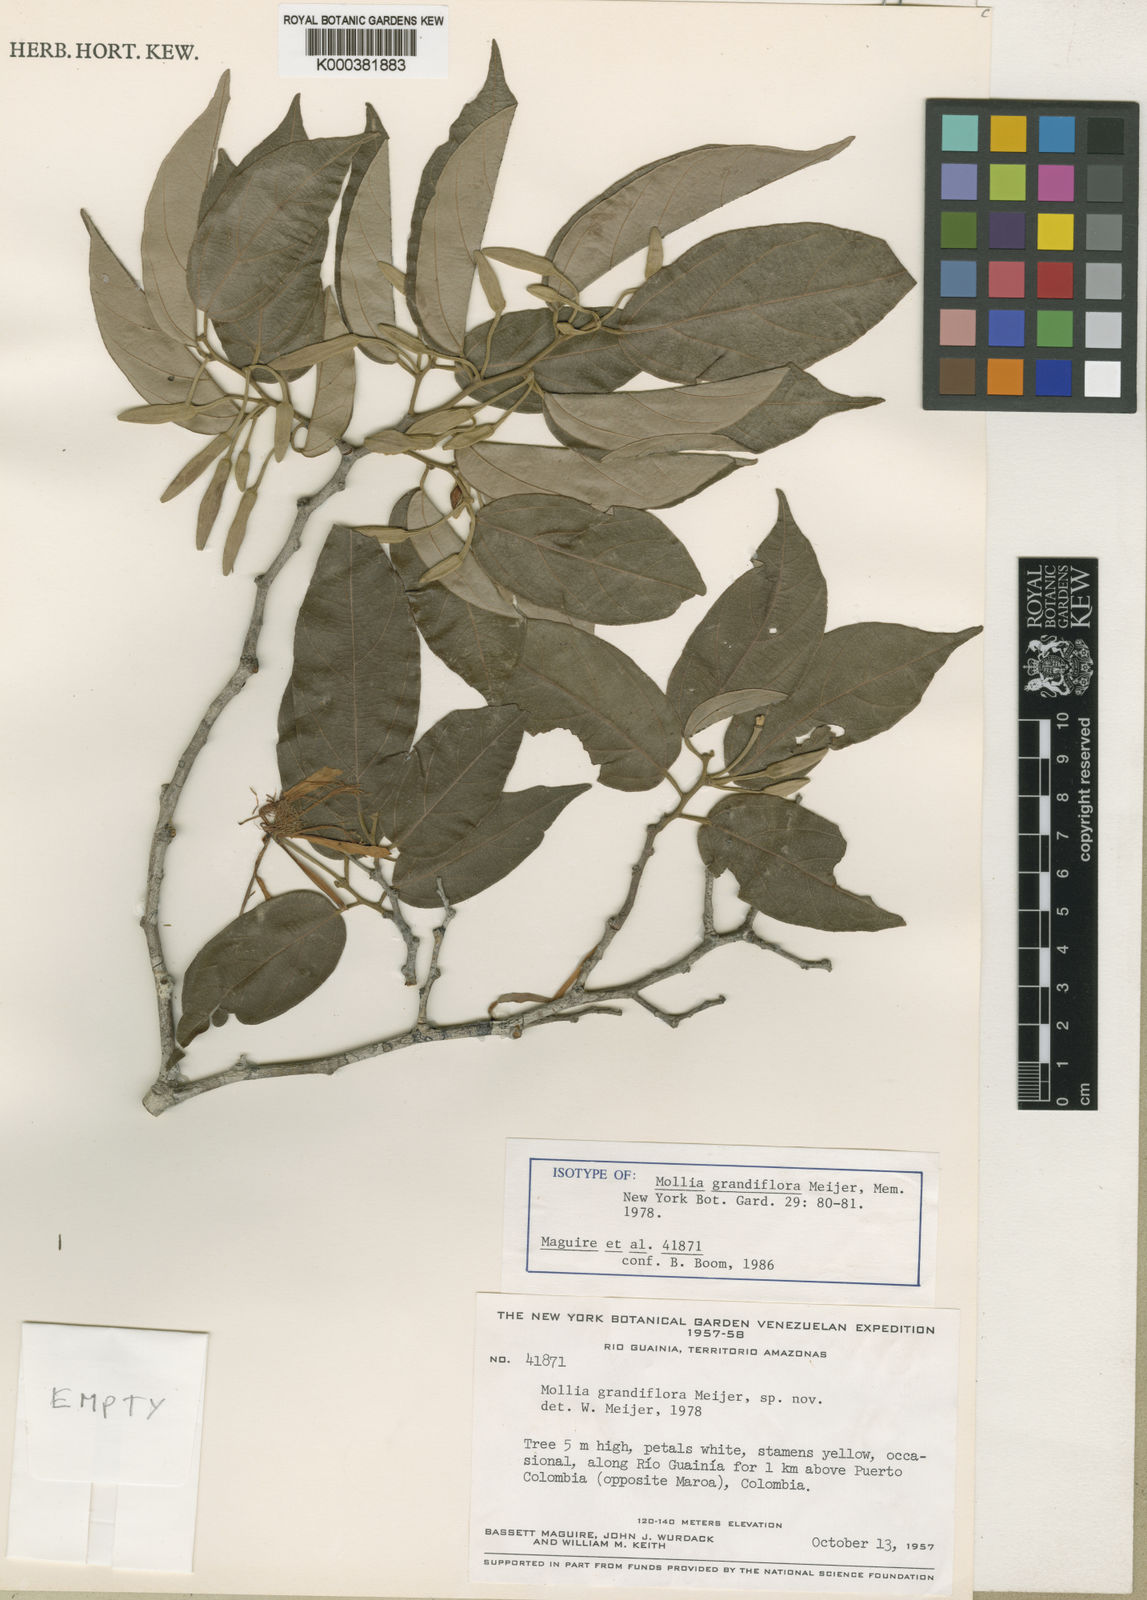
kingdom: Plantae
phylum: Tracheophyta
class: Magnoliopsida
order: Malvales
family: Malvaceae
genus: Mollia
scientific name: Mollia grandiflora
